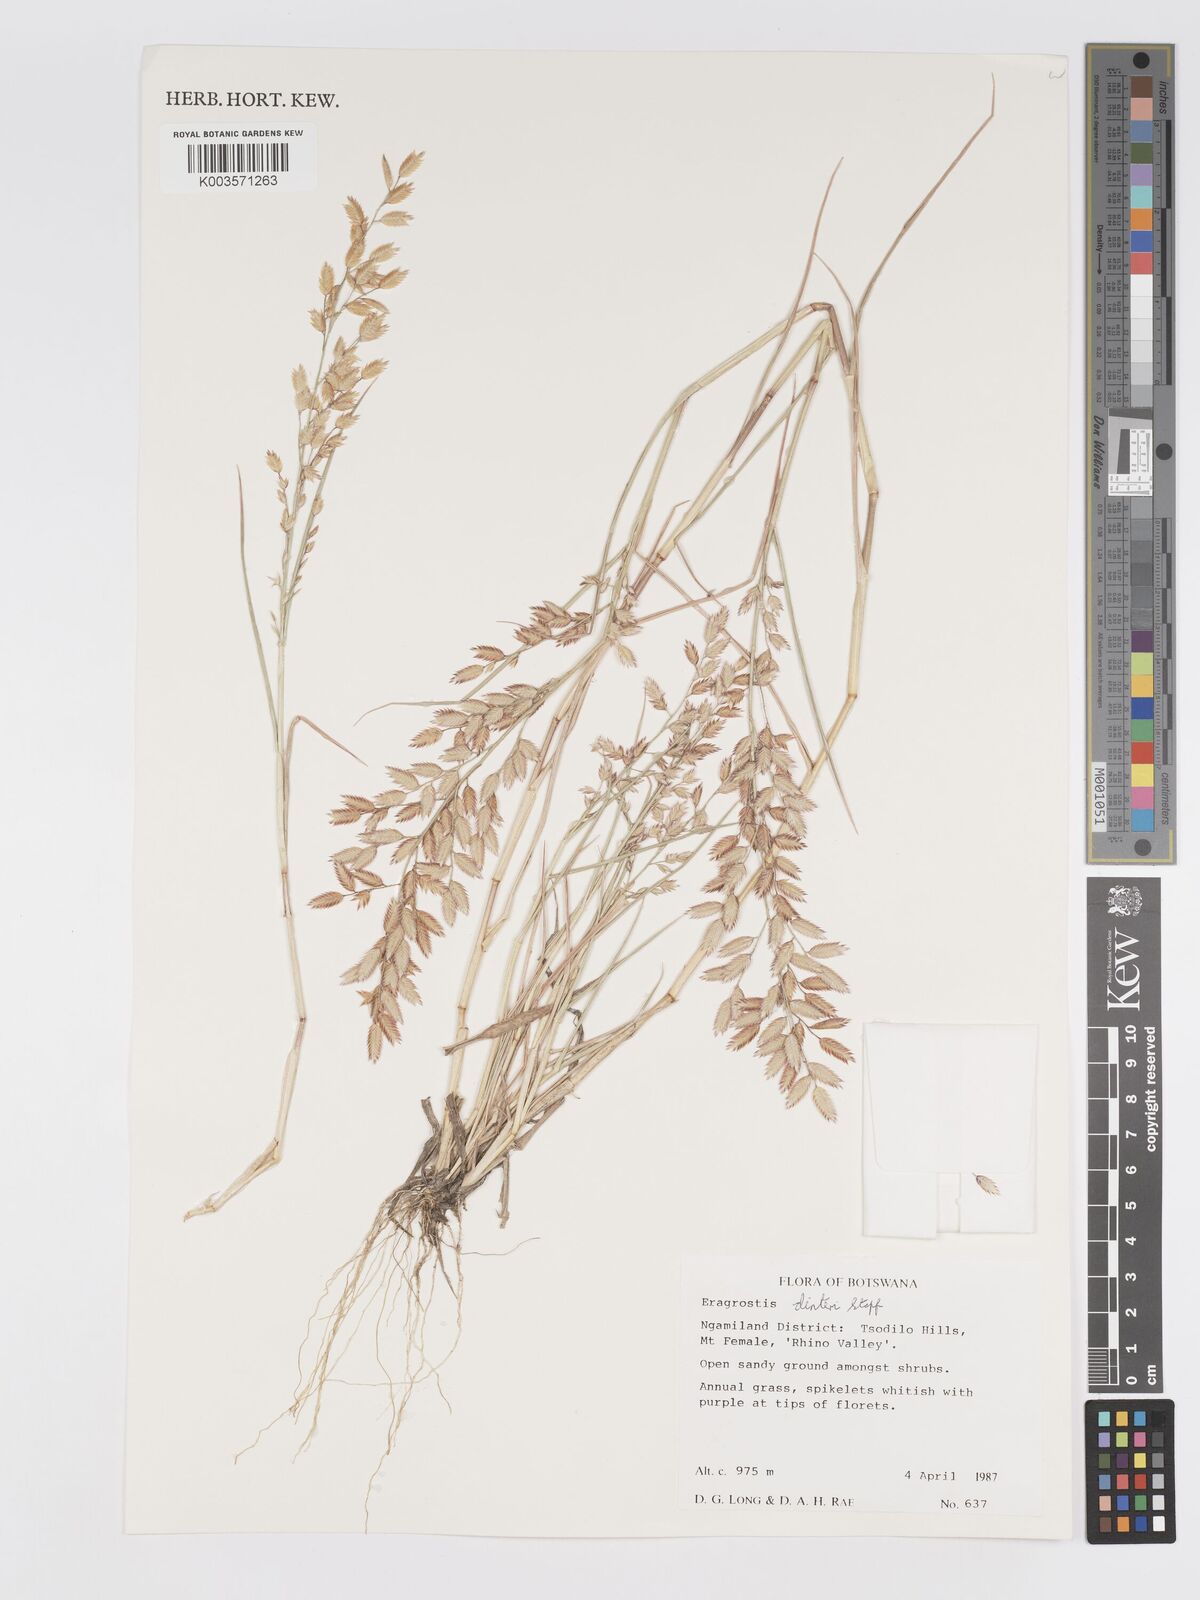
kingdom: Plantae
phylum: Tracheophyta
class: Liliopsida
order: Poales
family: Poaceae
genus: Eragrostis
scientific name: Eragrostis dinteri
